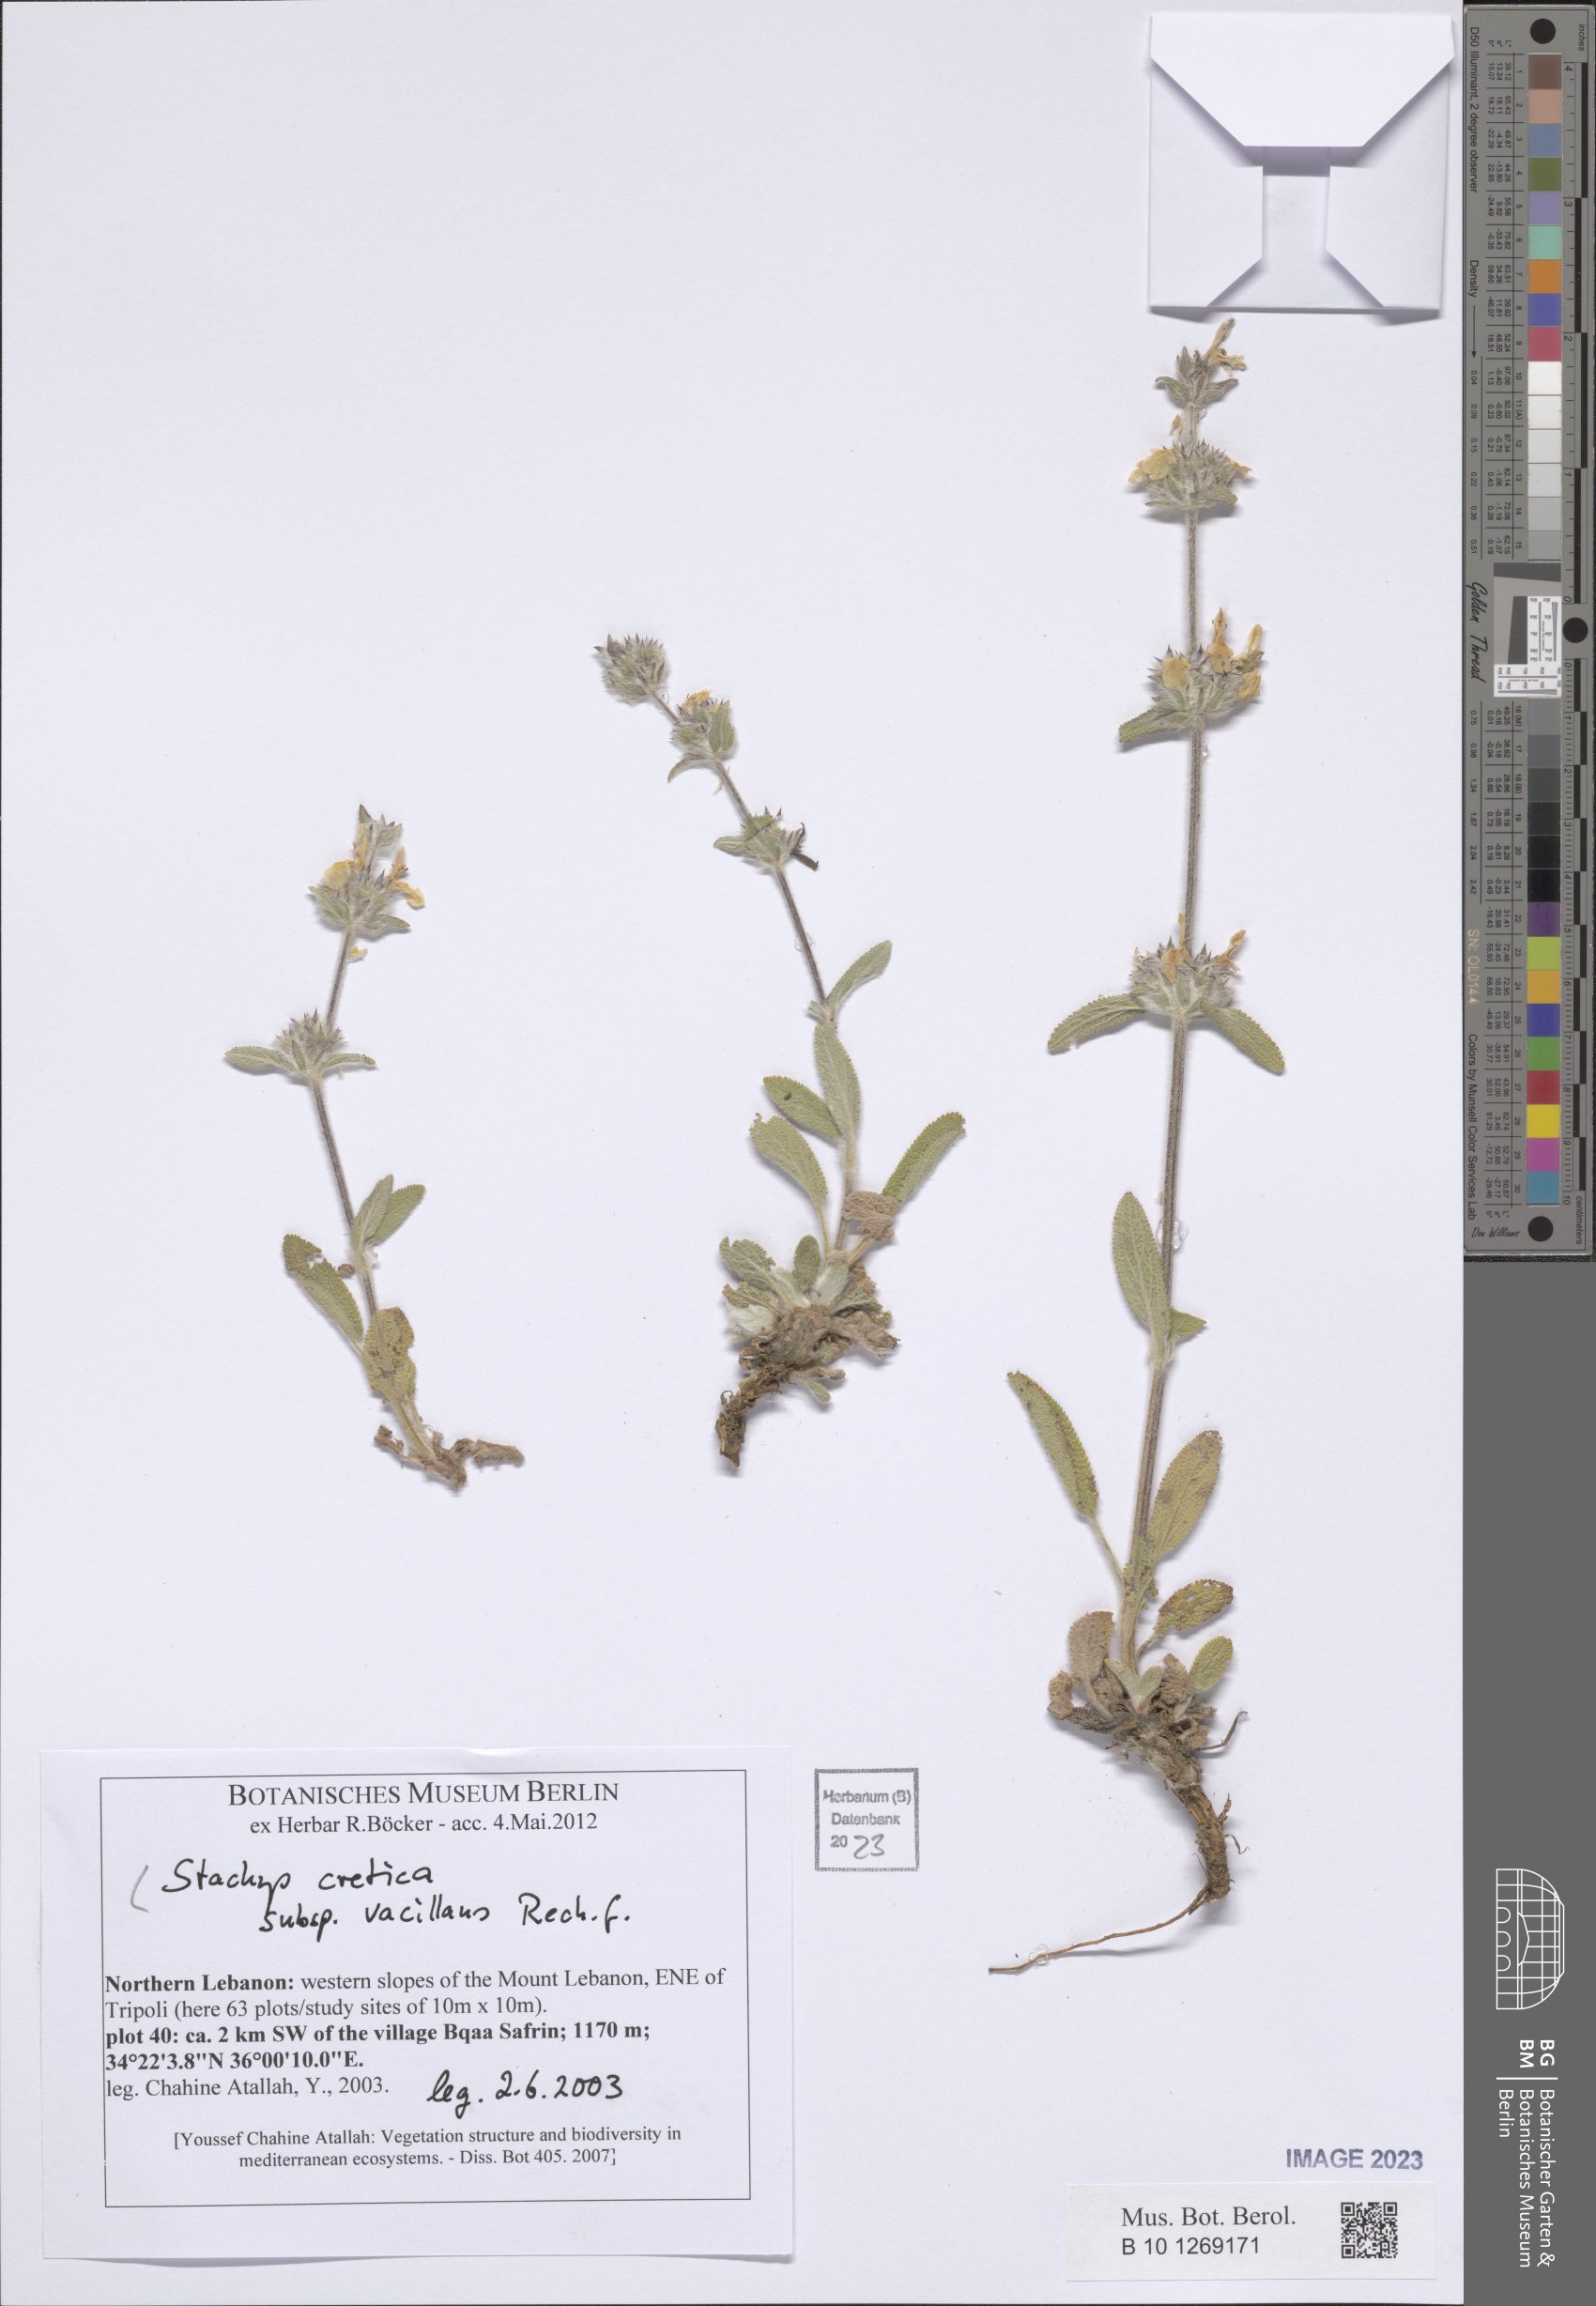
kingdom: Plantae
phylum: Tracheophyta
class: Magnoliopsida
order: Lamiales
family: Lamiaceae
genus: Stachys
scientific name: Stachys cretica
